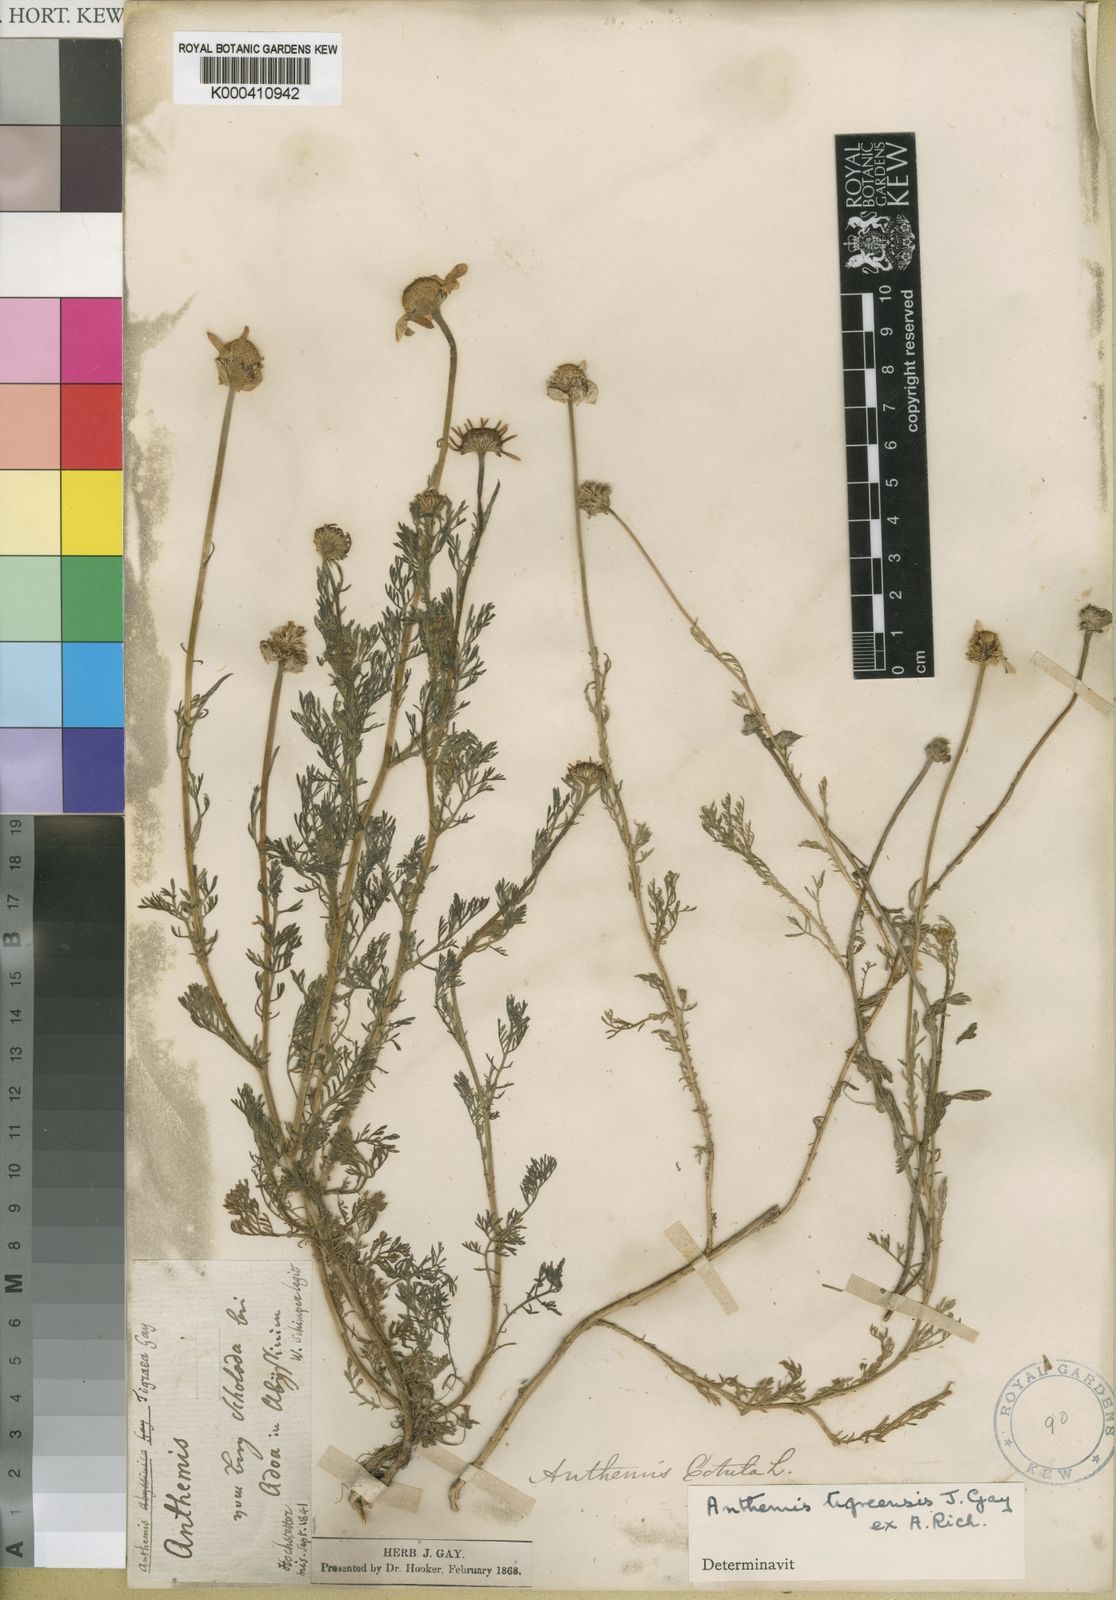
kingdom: Plantae
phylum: Tracheophyta
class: Magnoliopsida
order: Asterales
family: Asteraceae
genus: Anthemis
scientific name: Anthemis tigreensis
